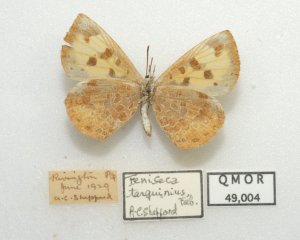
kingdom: Animalia
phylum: Arthropoda
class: Insecta
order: Lepidoptera
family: Lycaenidae
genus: Feniseca
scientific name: Feniseca tarquinius
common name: Harvester
